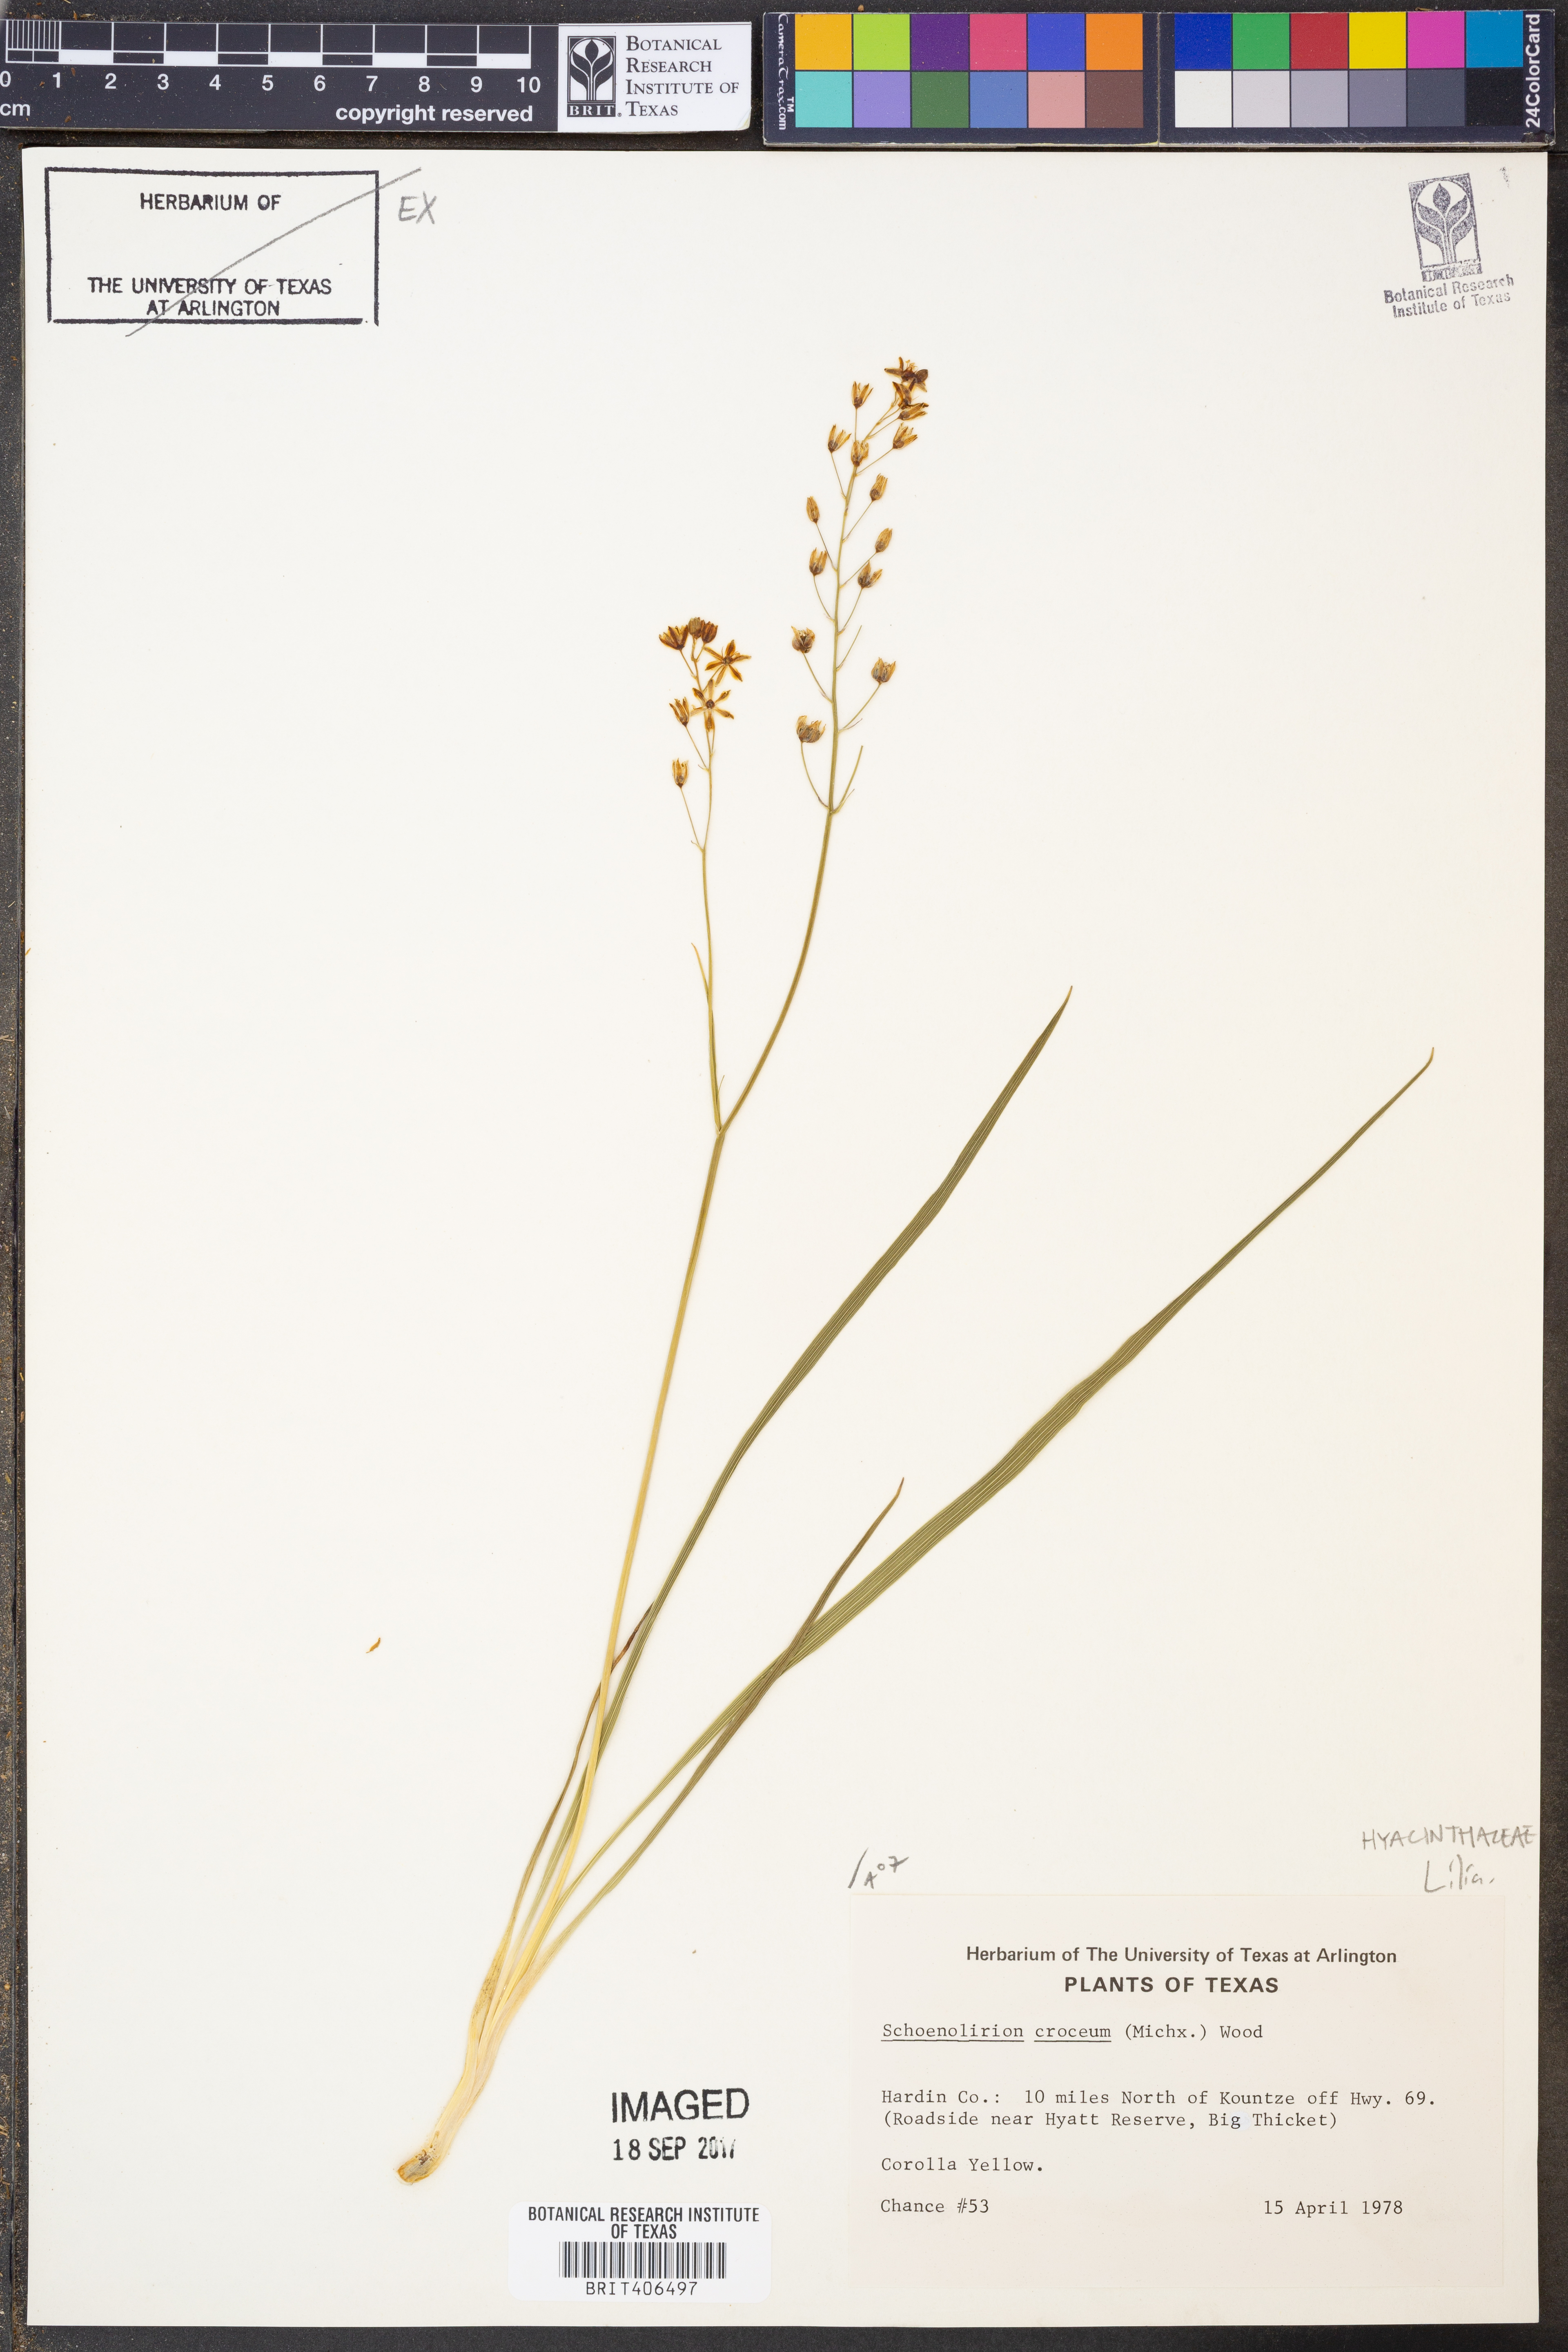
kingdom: Plantae
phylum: Tracheophyta
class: Liliopsida
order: Asparagales
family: Asparagaceae
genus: Schoenolirion
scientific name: Schoenolirion croceum
